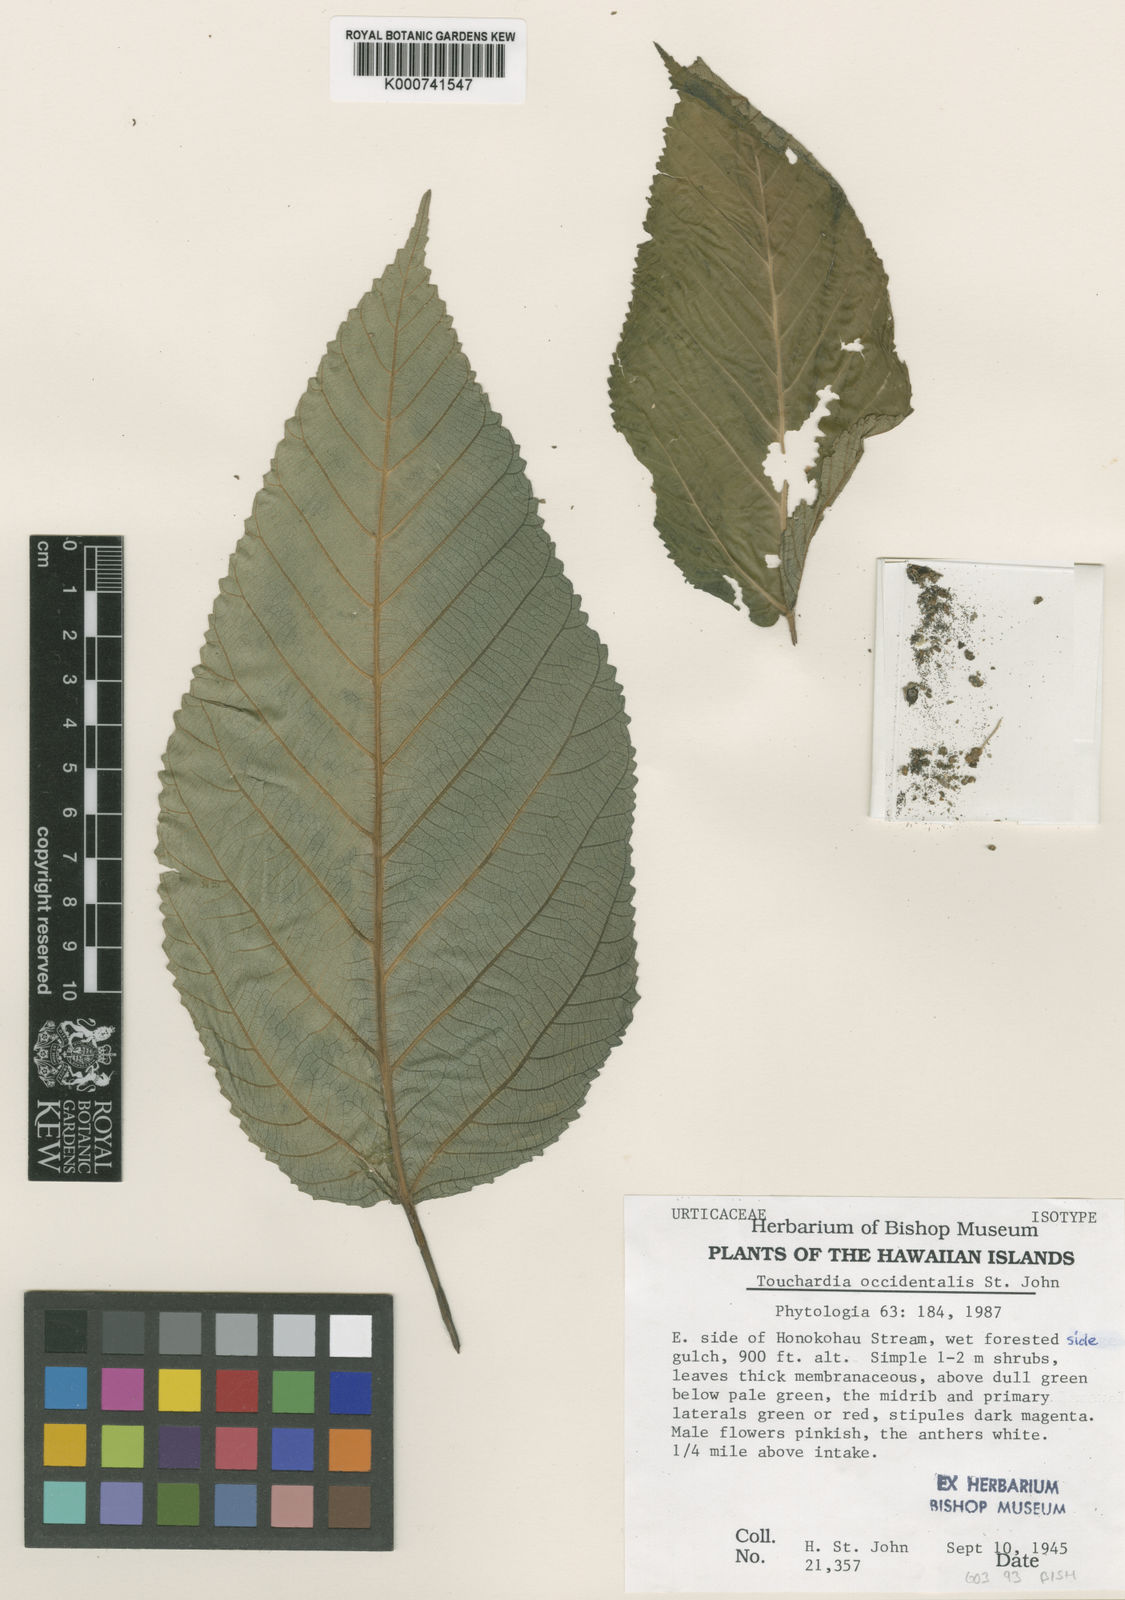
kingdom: Plantae
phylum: Tracheophyta
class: Magnoliopsida
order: Rosales
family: Urticaceae
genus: Touchardia
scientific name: Touchardia latifolia
